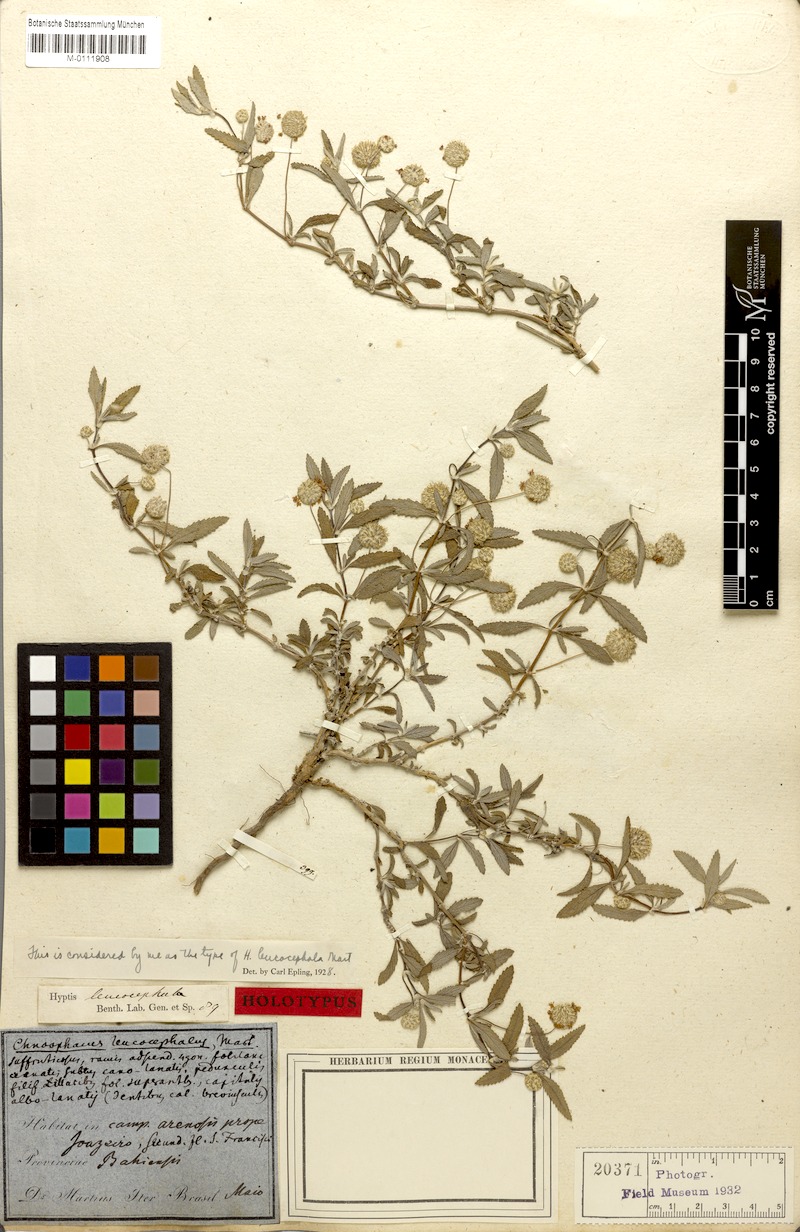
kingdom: Plantae
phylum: Tracheophyta
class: Magnoliopsida
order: Lamiales
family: Lamiaceae
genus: Martianthus
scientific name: Martianthus leucocephalus
